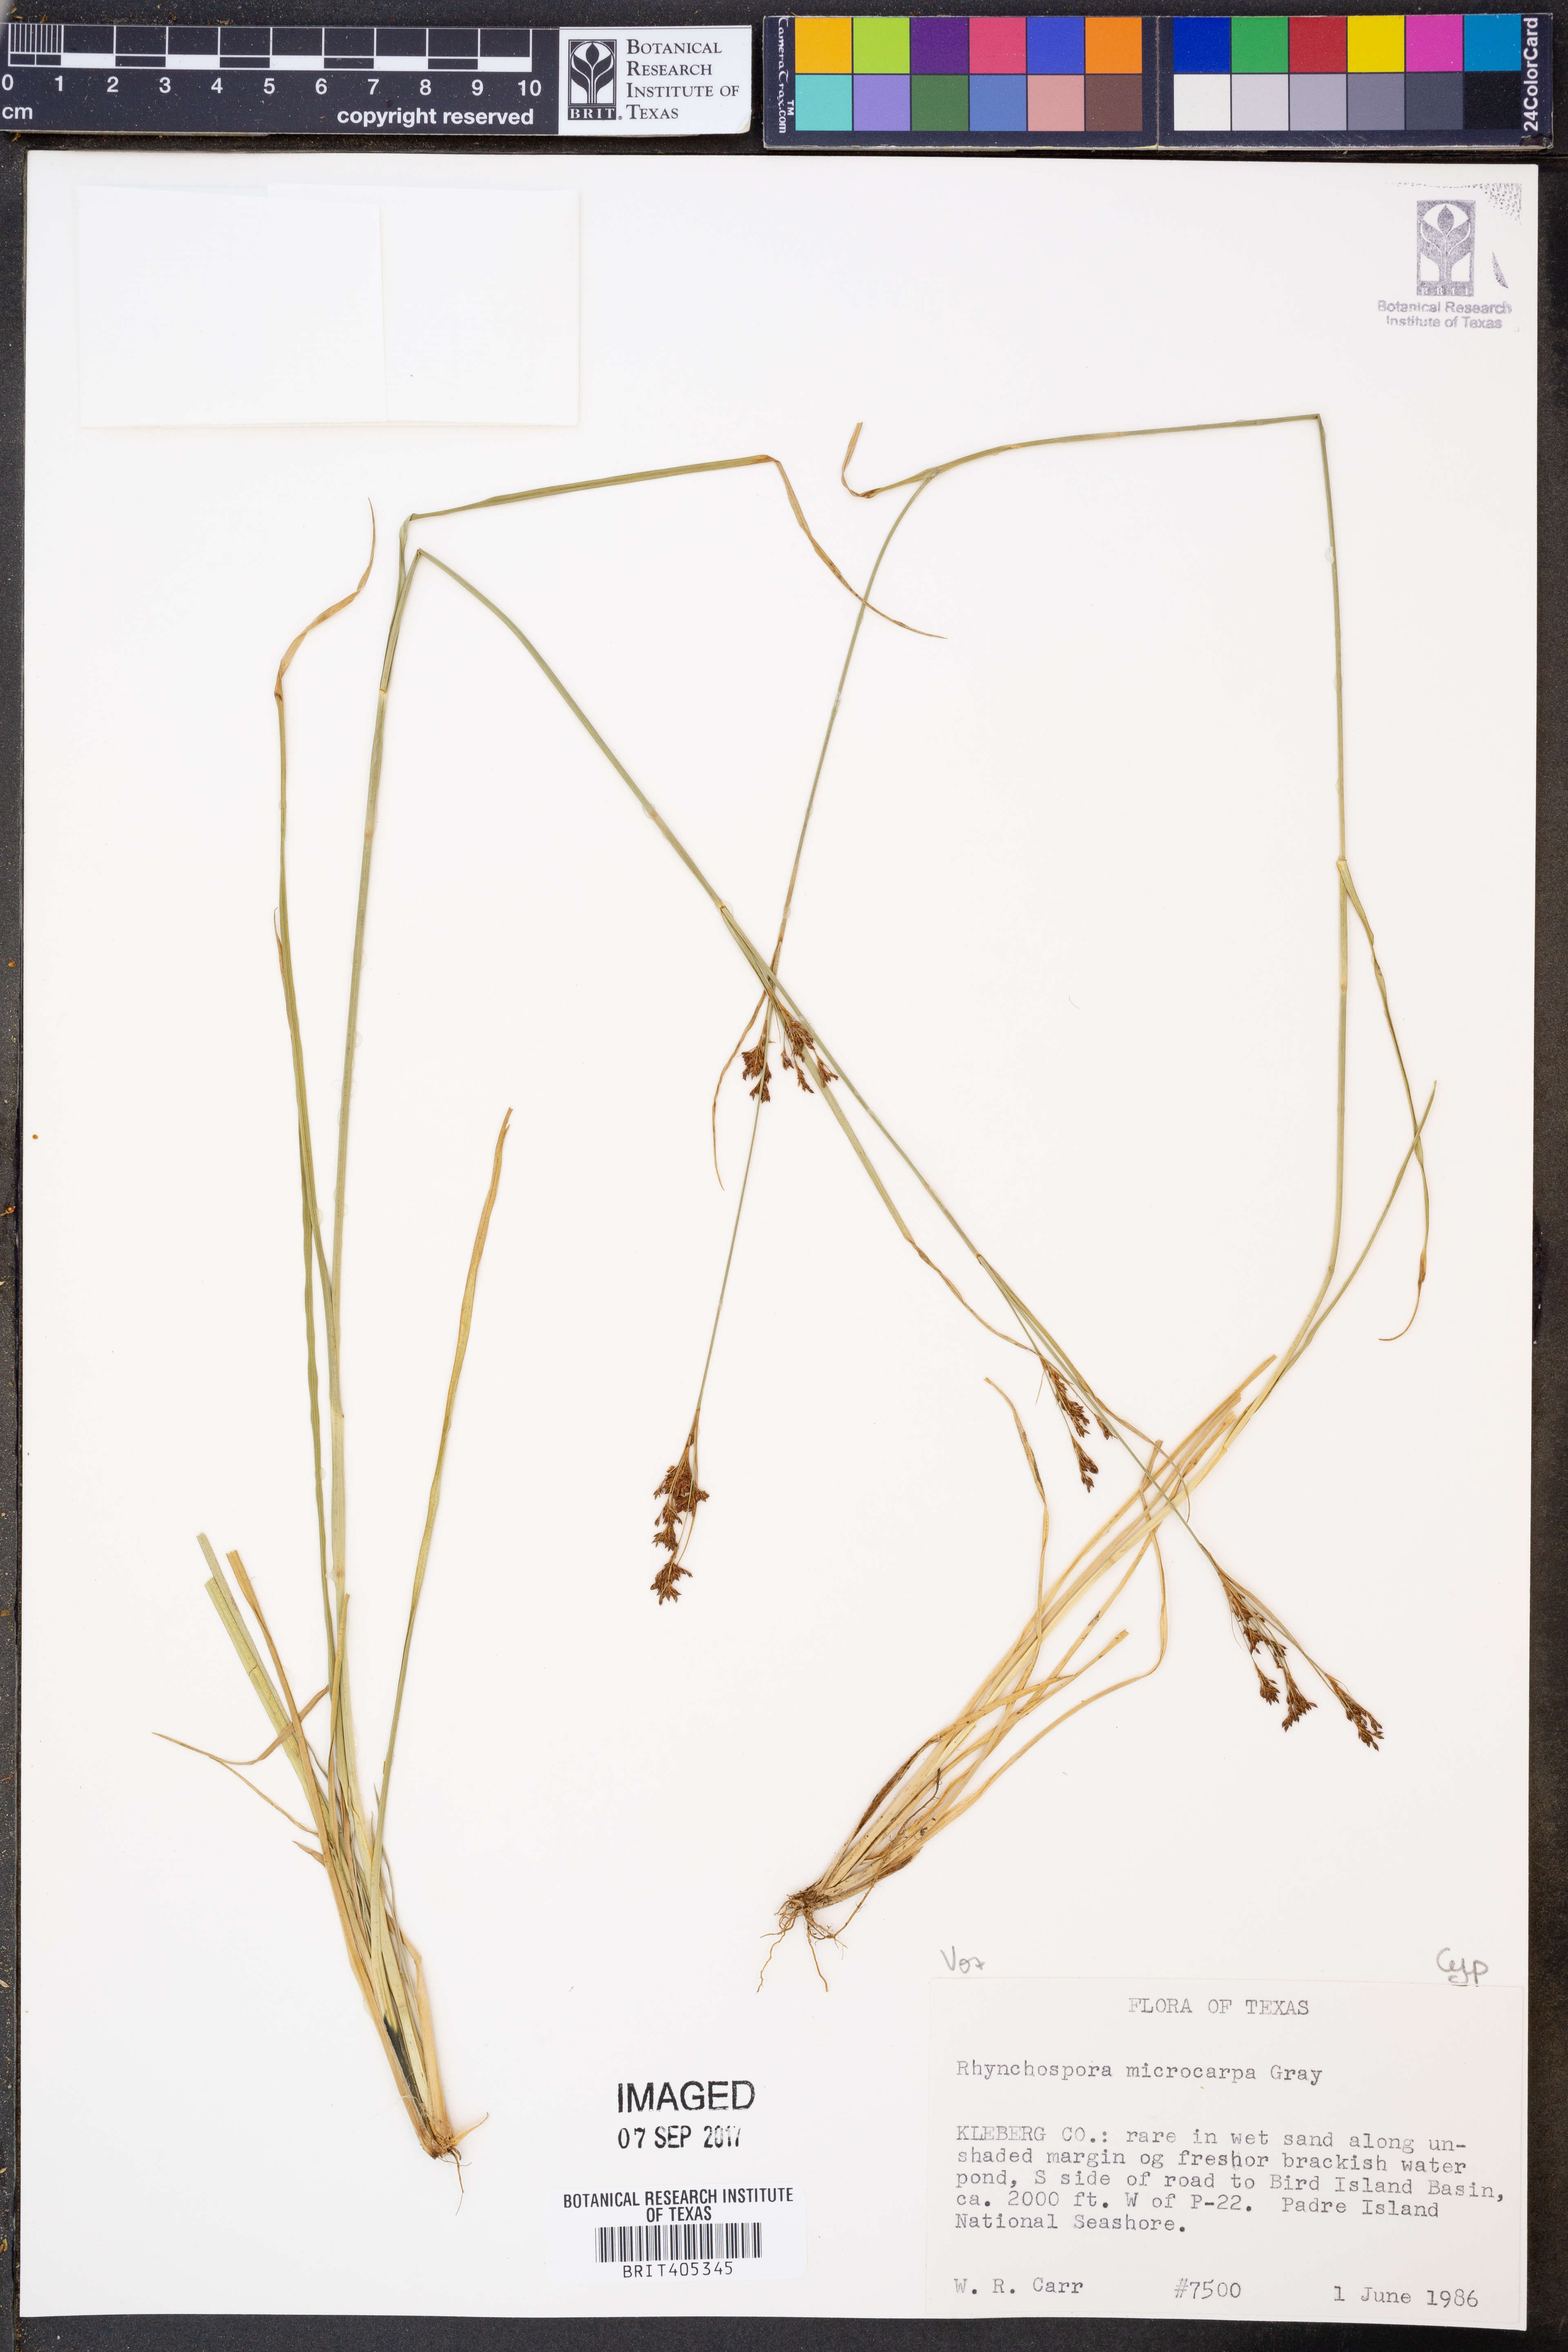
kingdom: Plantae
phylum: Tracheophyta
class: Liliopsida
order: Poales
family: Cyperaceae
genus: Rhynchospora
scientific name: Rhynchospora microcarpa
